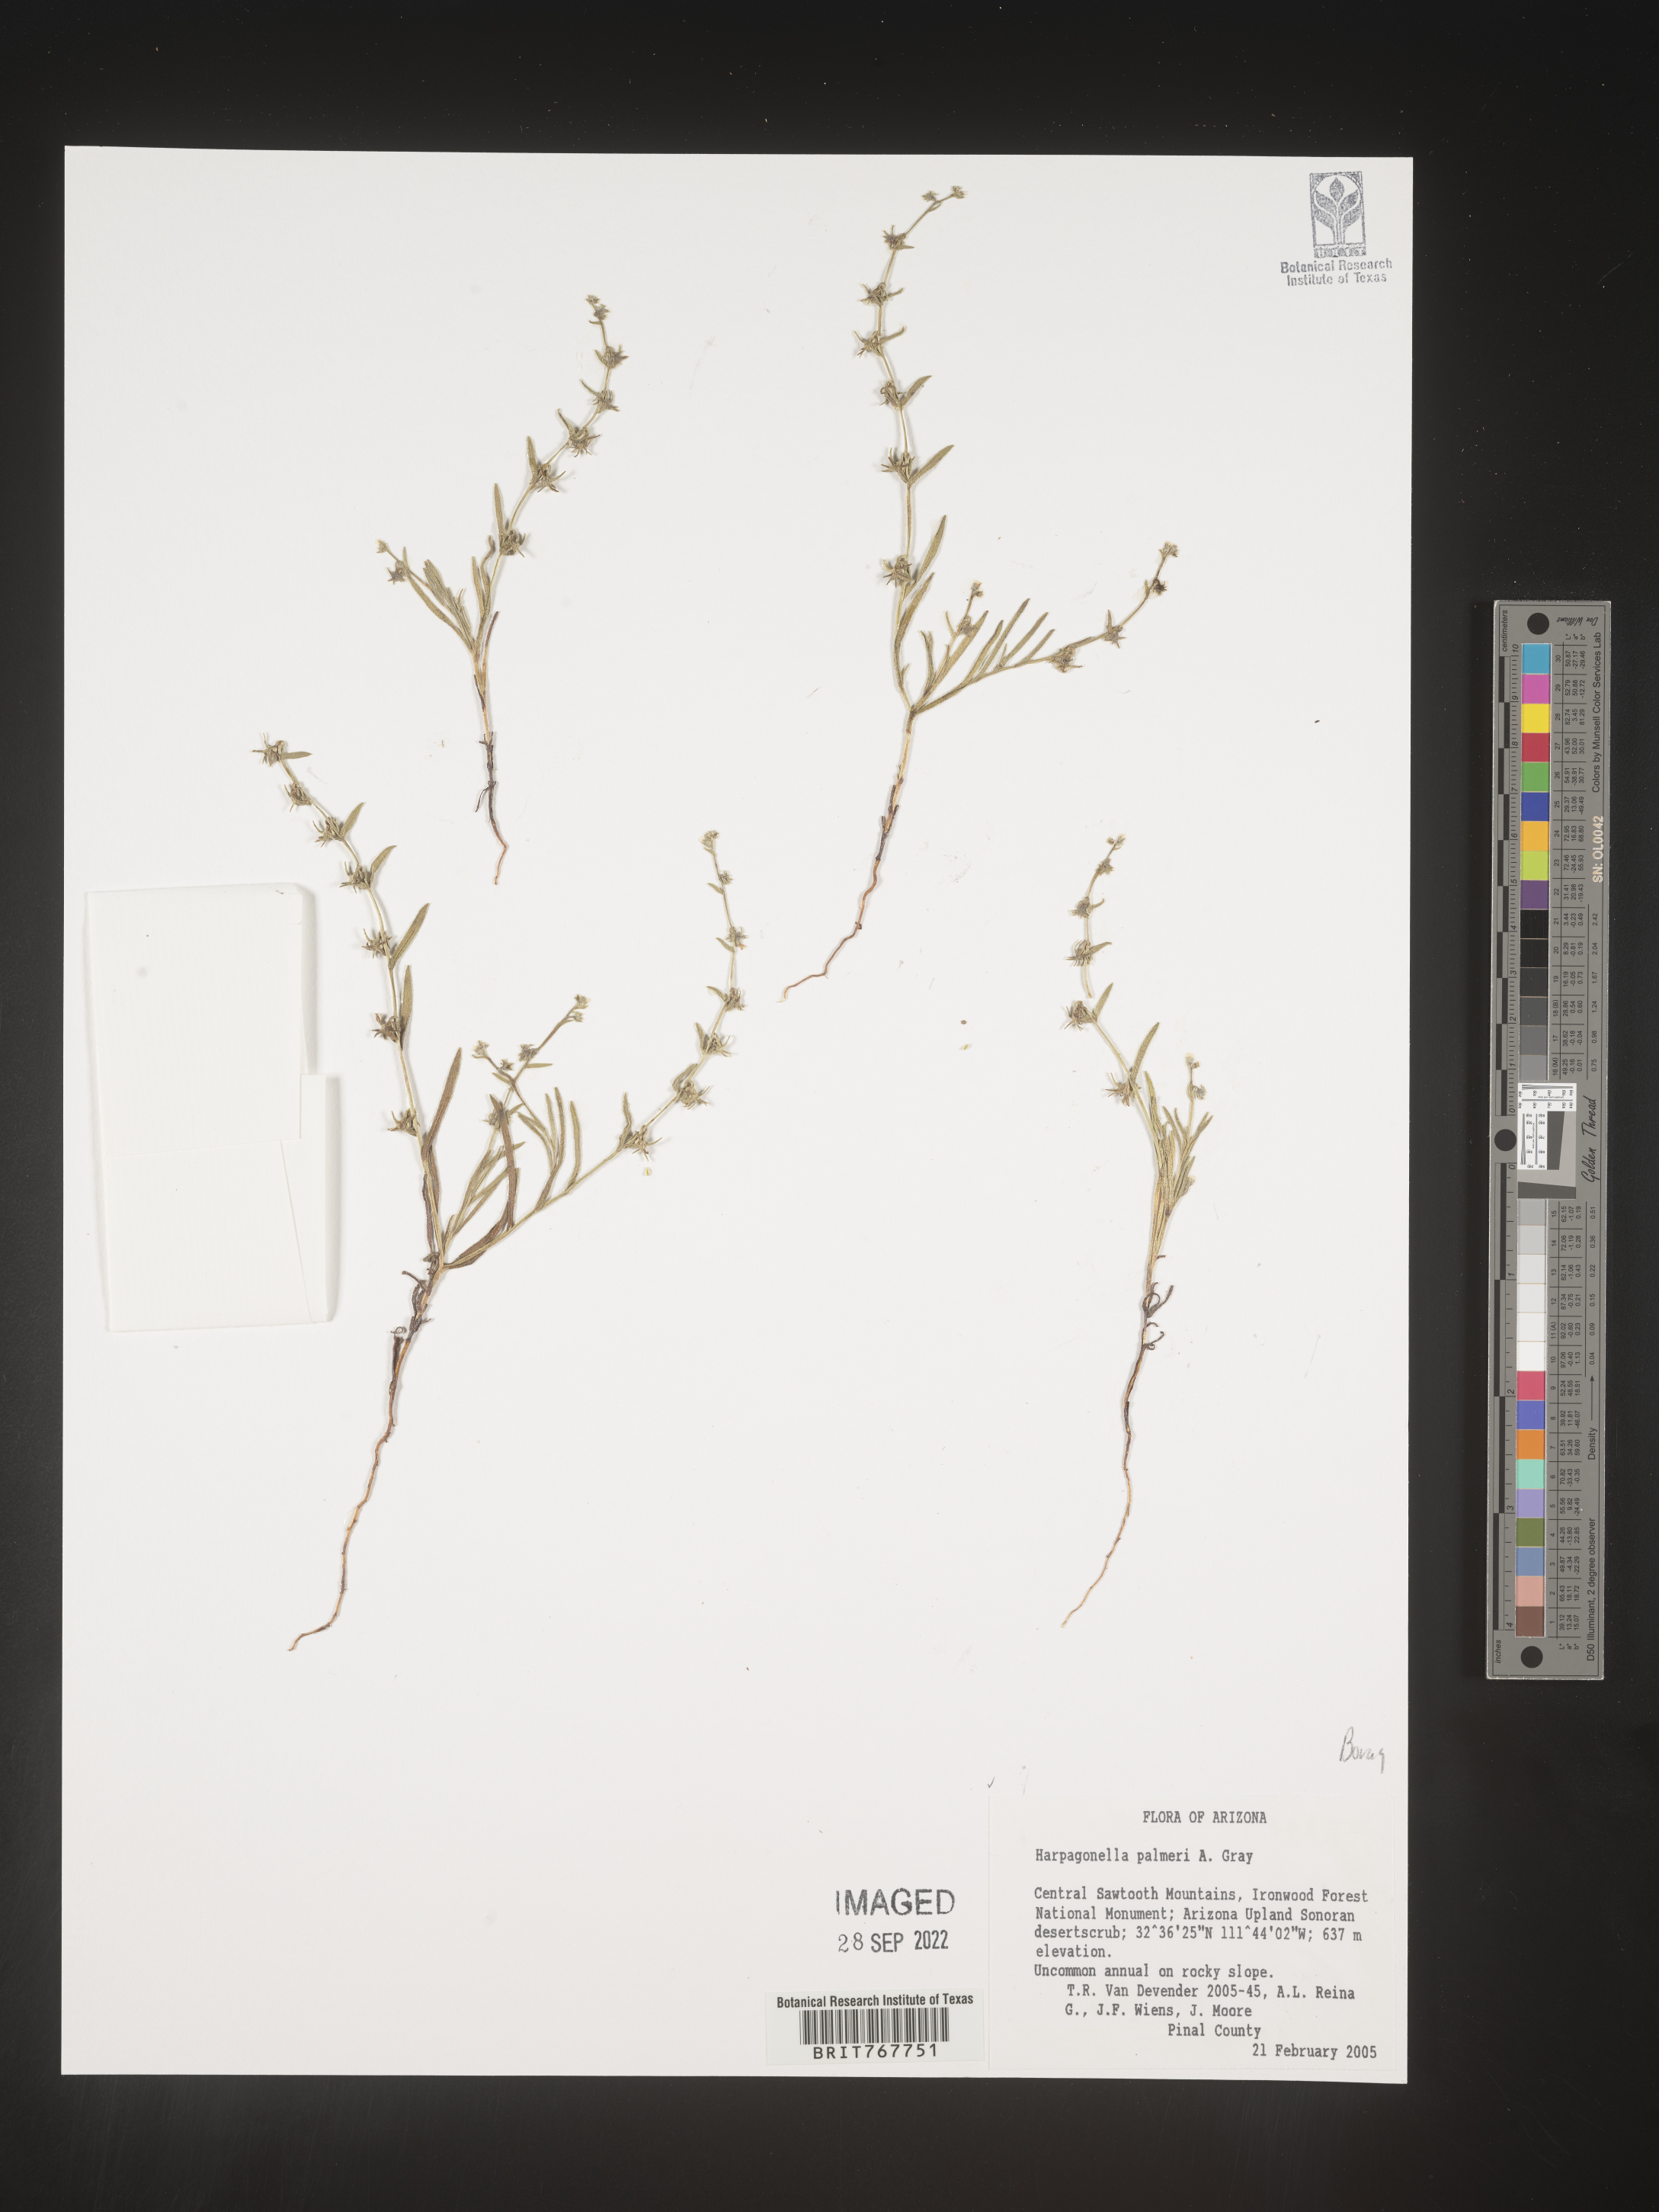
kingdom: Plantae
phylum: Tracheophyta
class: Magnoliopsida
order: Boraginales
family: Boraginaceae
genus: Harpagonella
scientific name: Harpagonella
